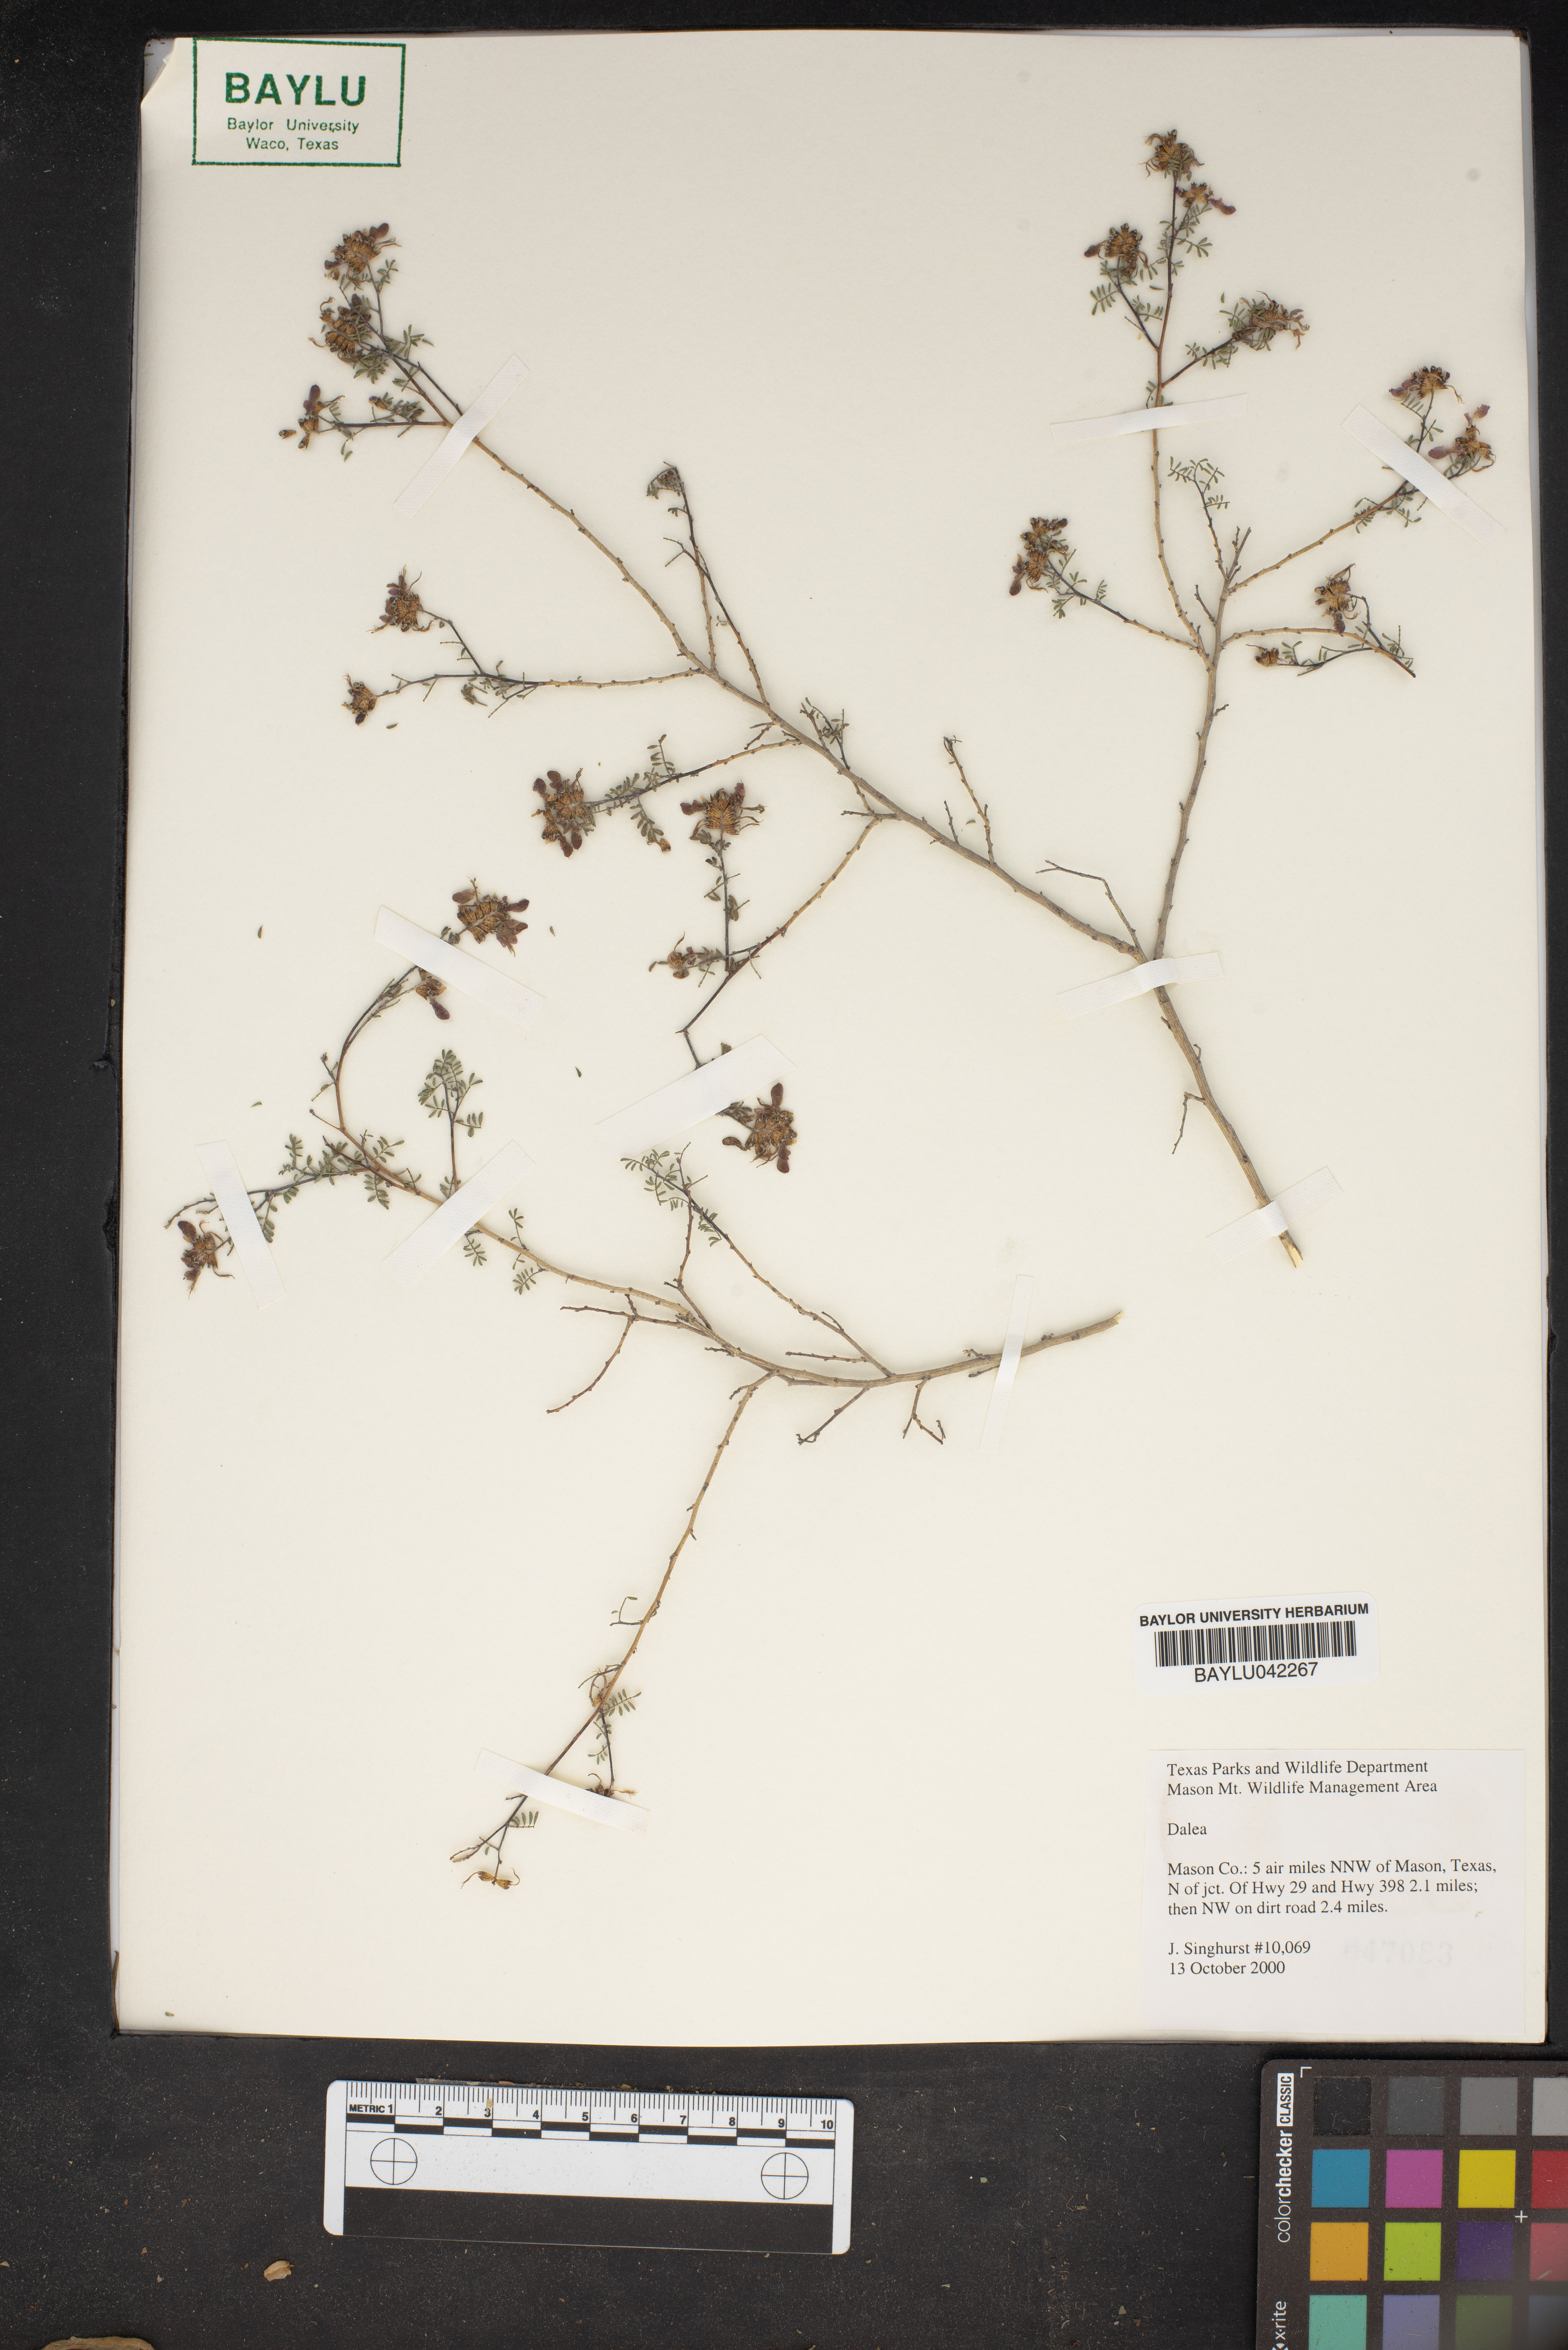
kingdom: Plantae
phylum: Tracheophyta
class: Magnoliopsida
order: Fabales
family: Fabaceae
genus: Dalea
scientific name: Dalea
